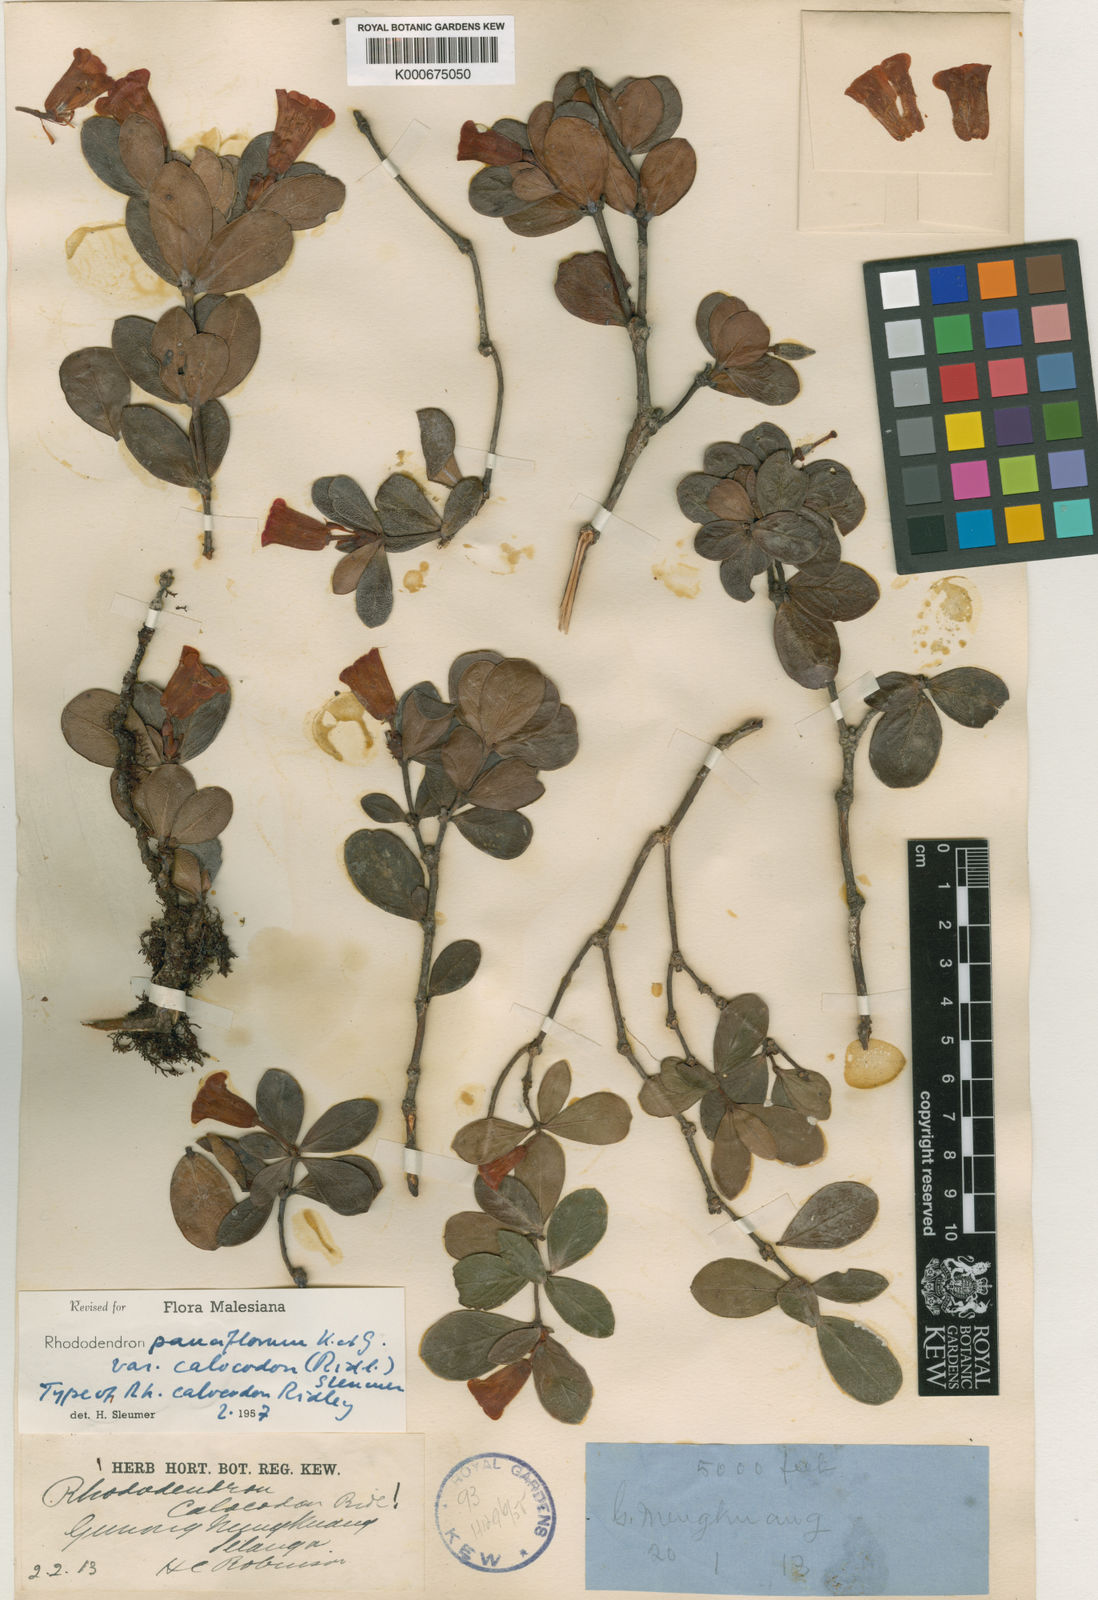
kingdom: Plantae
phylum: Tracheophyta
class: Magnoliopsida
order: Ericales
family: Ericaceae
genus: Rhododendron
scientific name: Rhododendron pauciflorum
